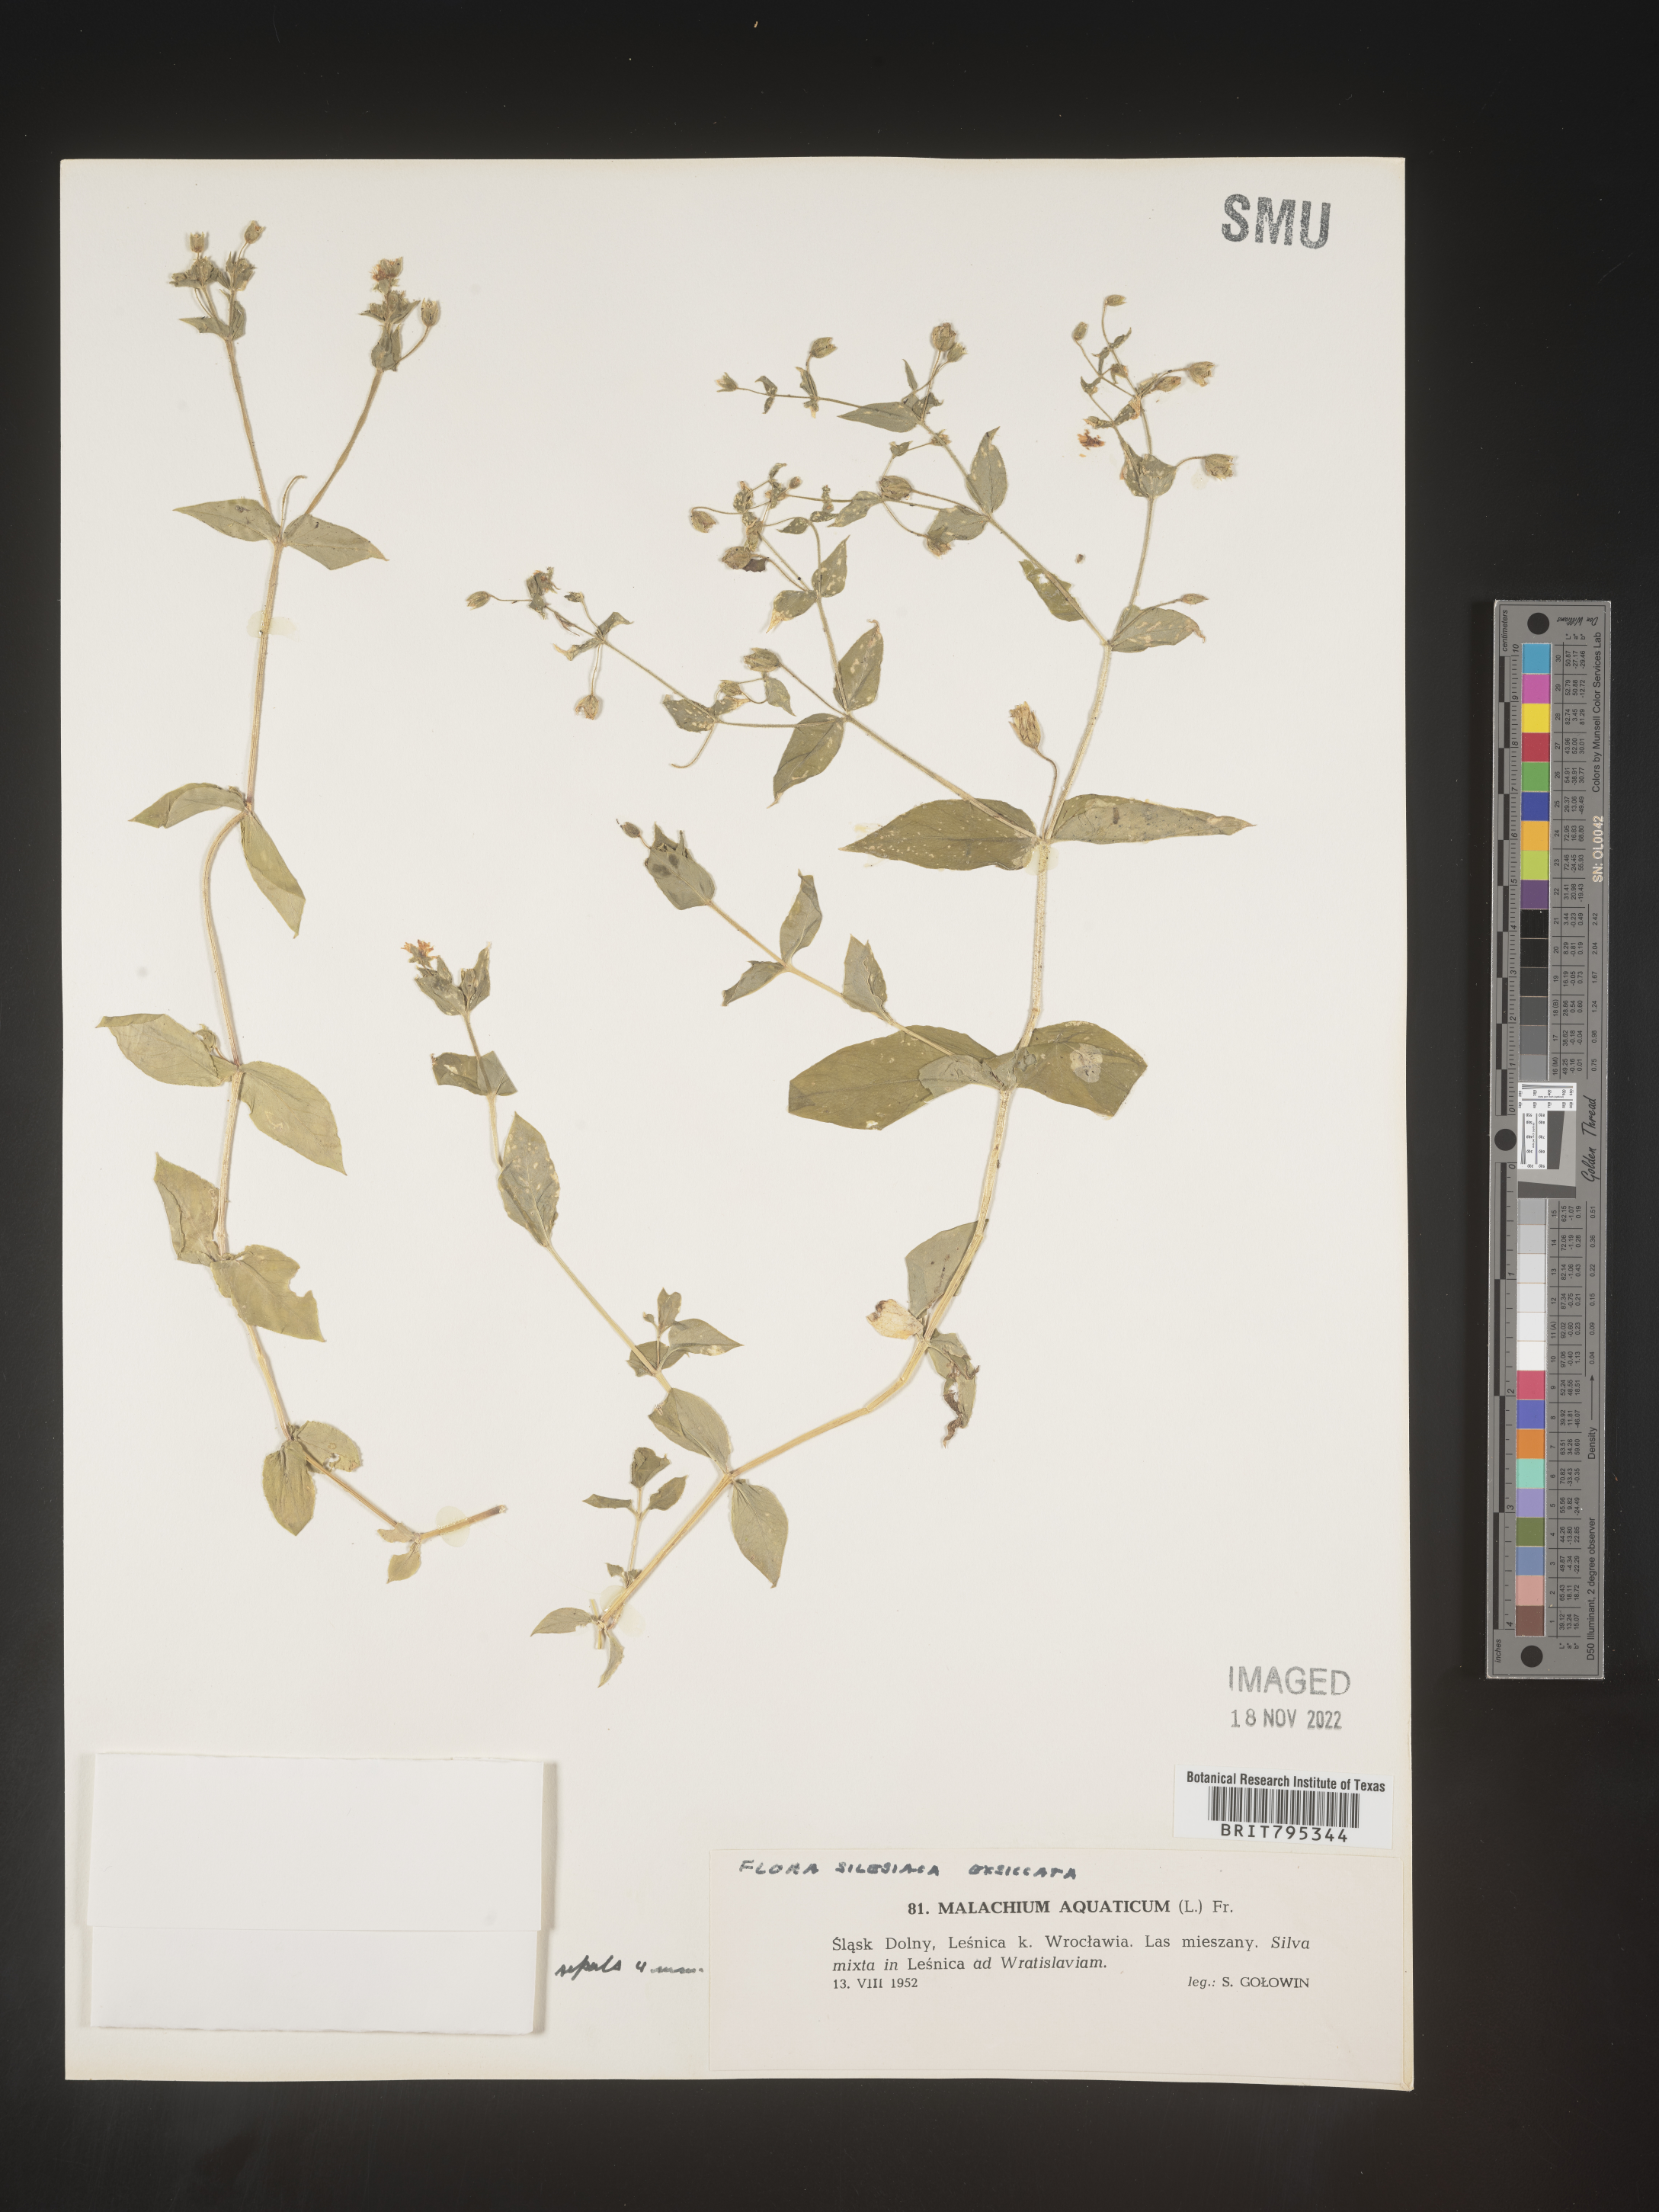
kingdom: Plantae
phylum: Tracheophyta
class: Magnoliopsida
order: Caryophyllales
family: Caryophyllaceae
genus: Stellaria
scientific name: Stellaria
